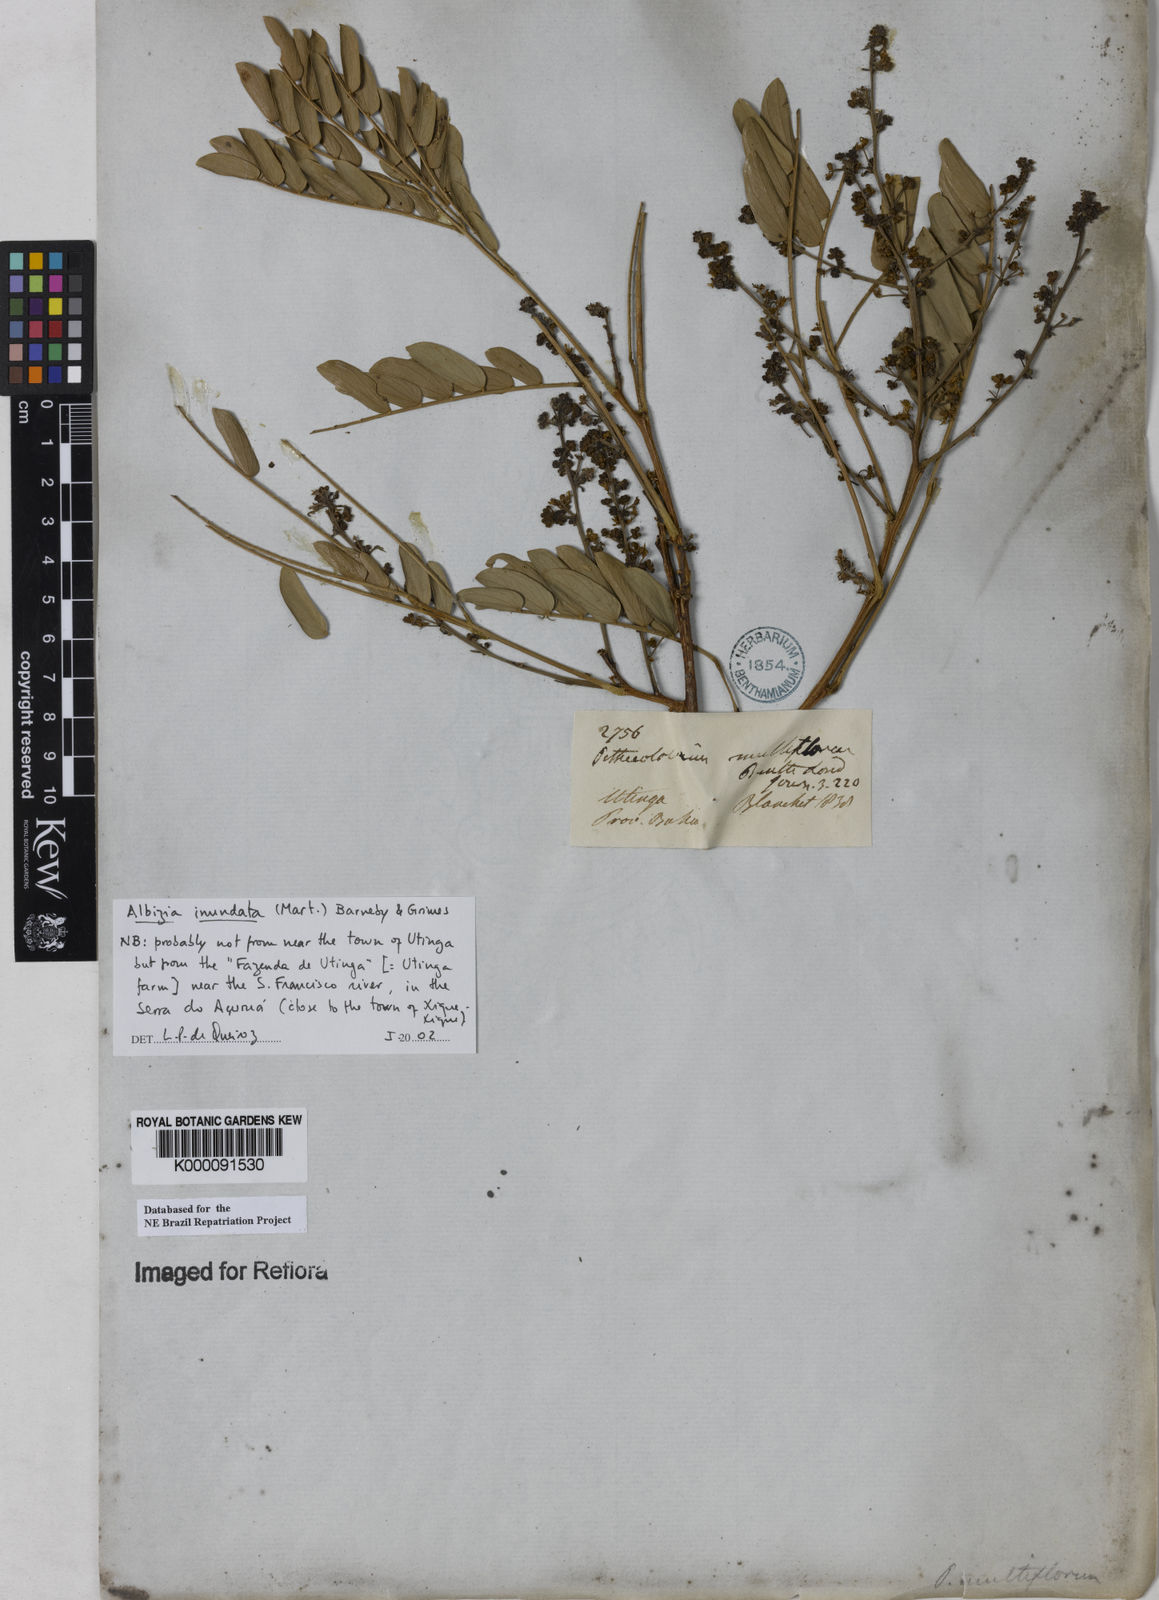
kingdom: Plantae
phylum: Tracheophyta
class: Magnoliopsida
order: Fabales
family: Fabaceae
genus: Albizia
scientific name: Albizia inundata
